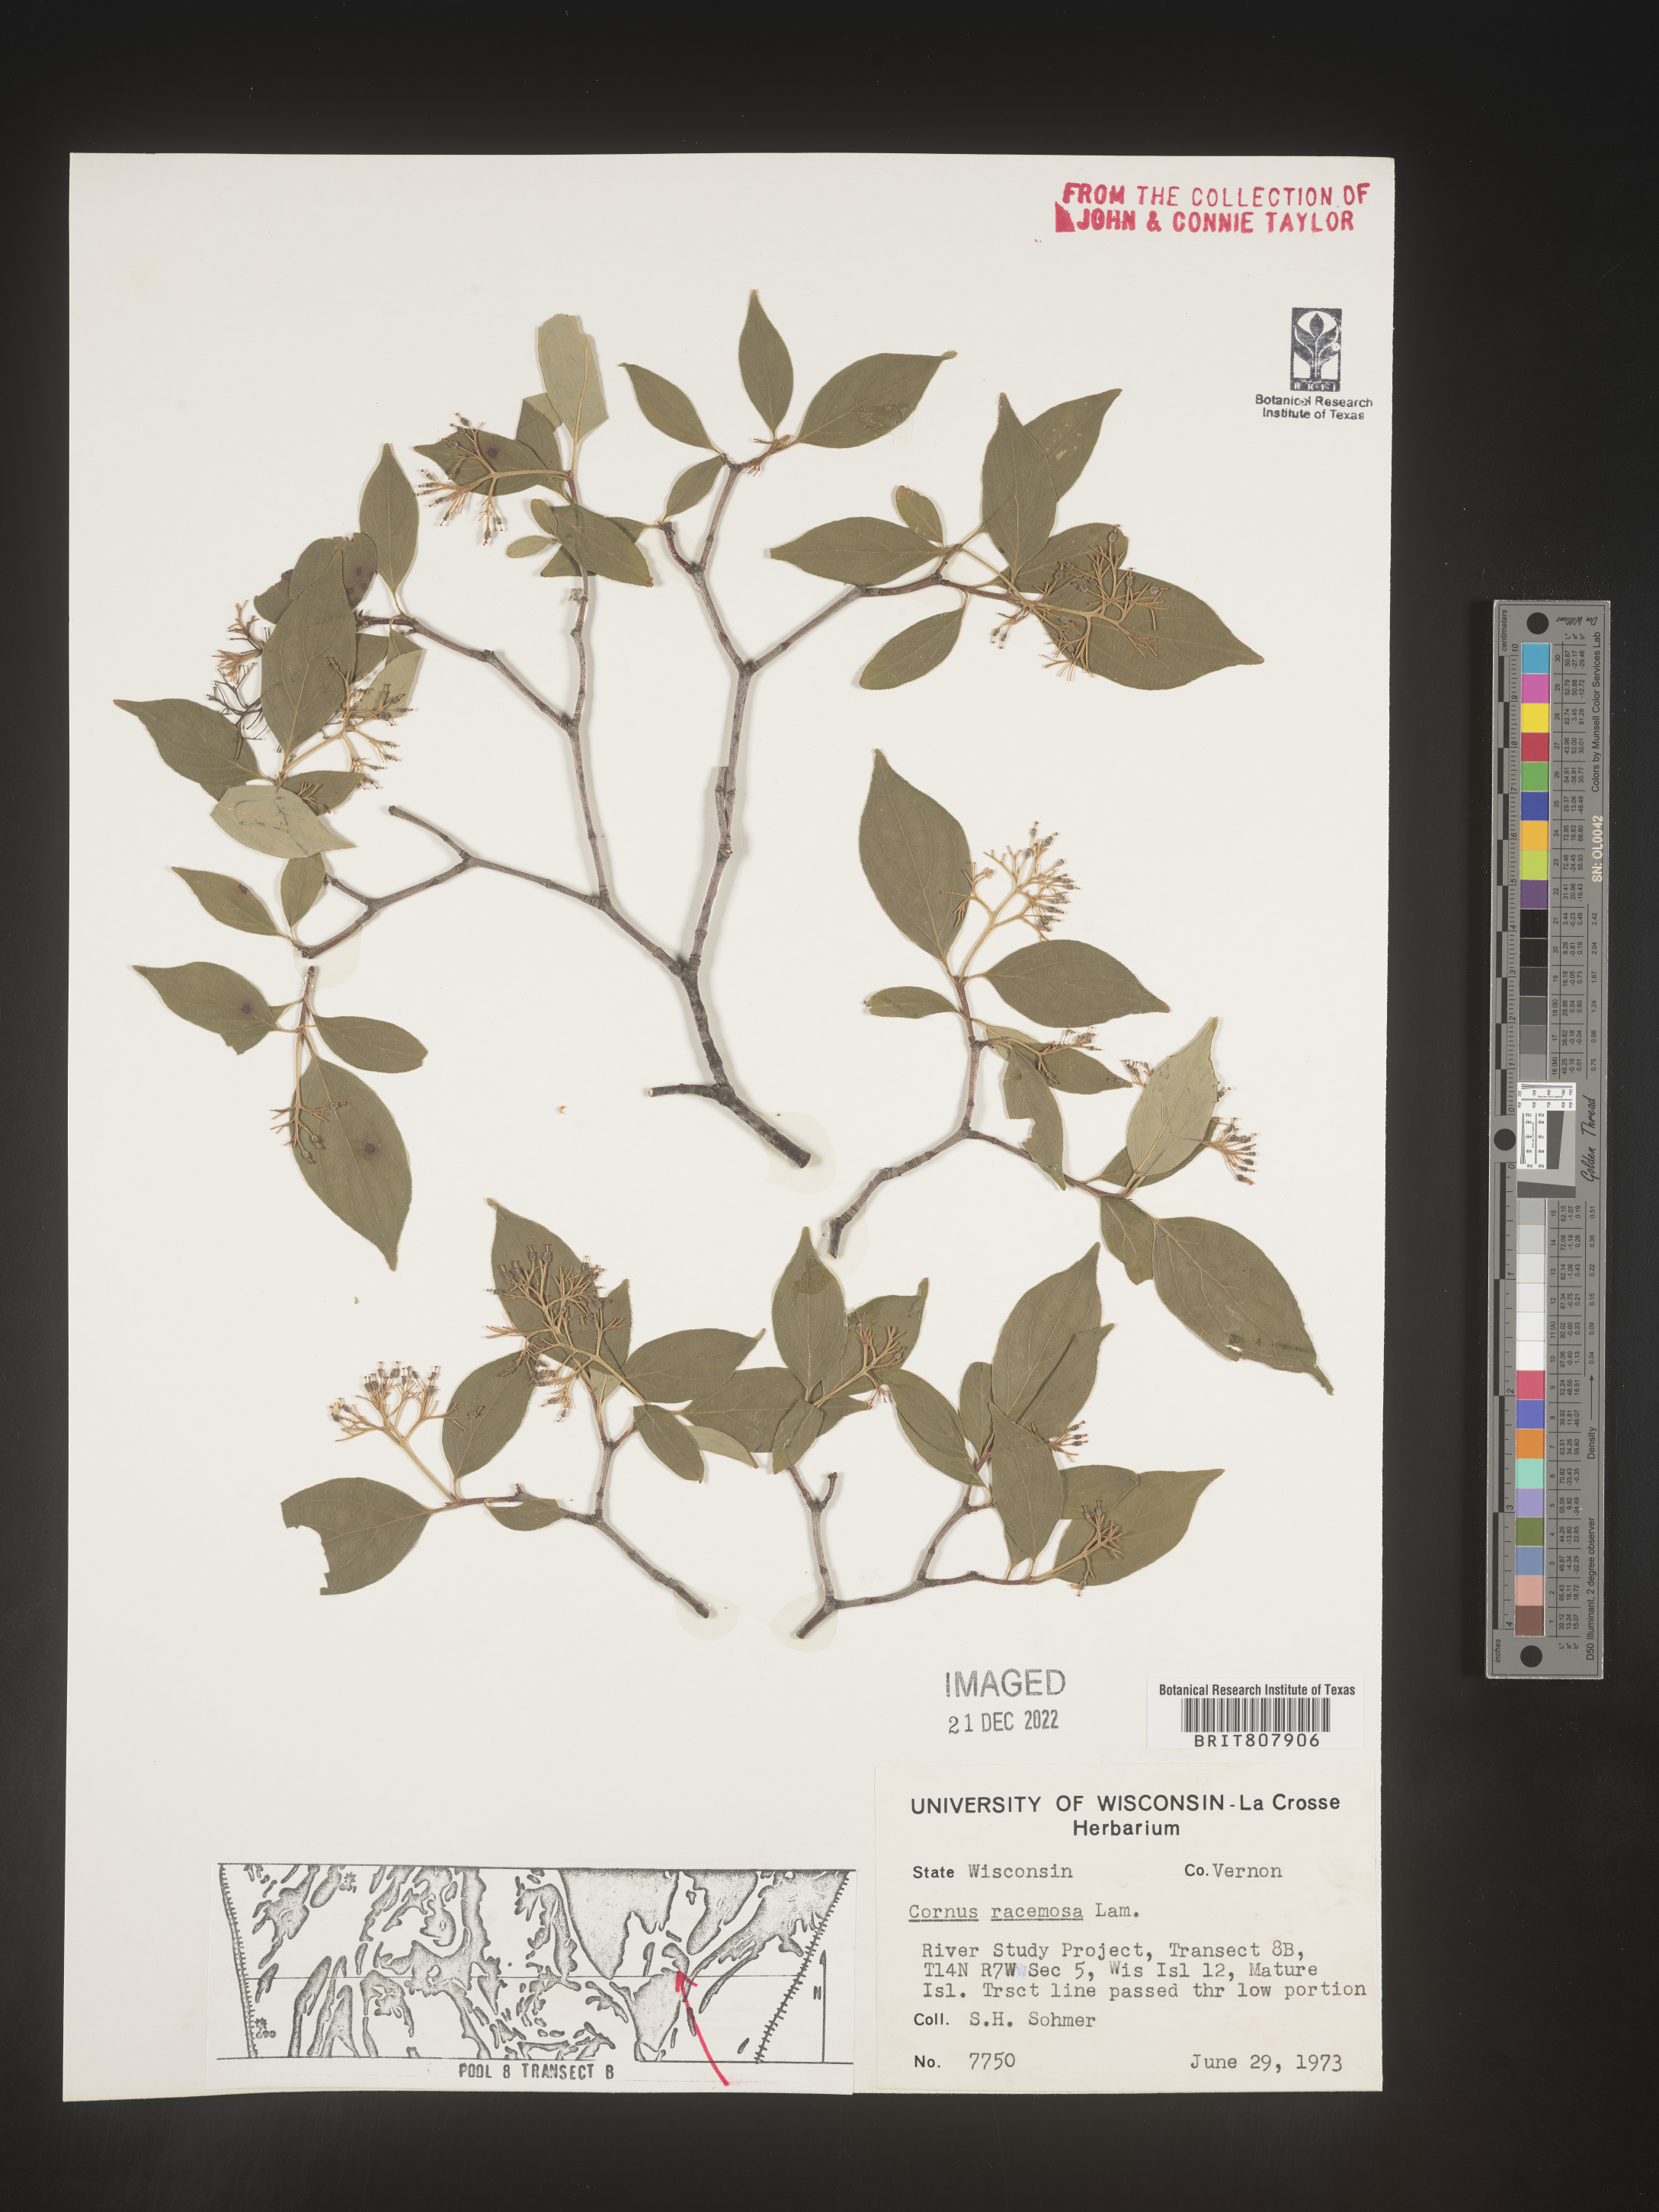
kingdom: Plantae
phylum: Tracheophyta
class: Magnoliopsida
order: Cornales
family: Cornaceae
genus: Cornus
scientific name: Cornus racemosa
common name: Panicled dogwood
